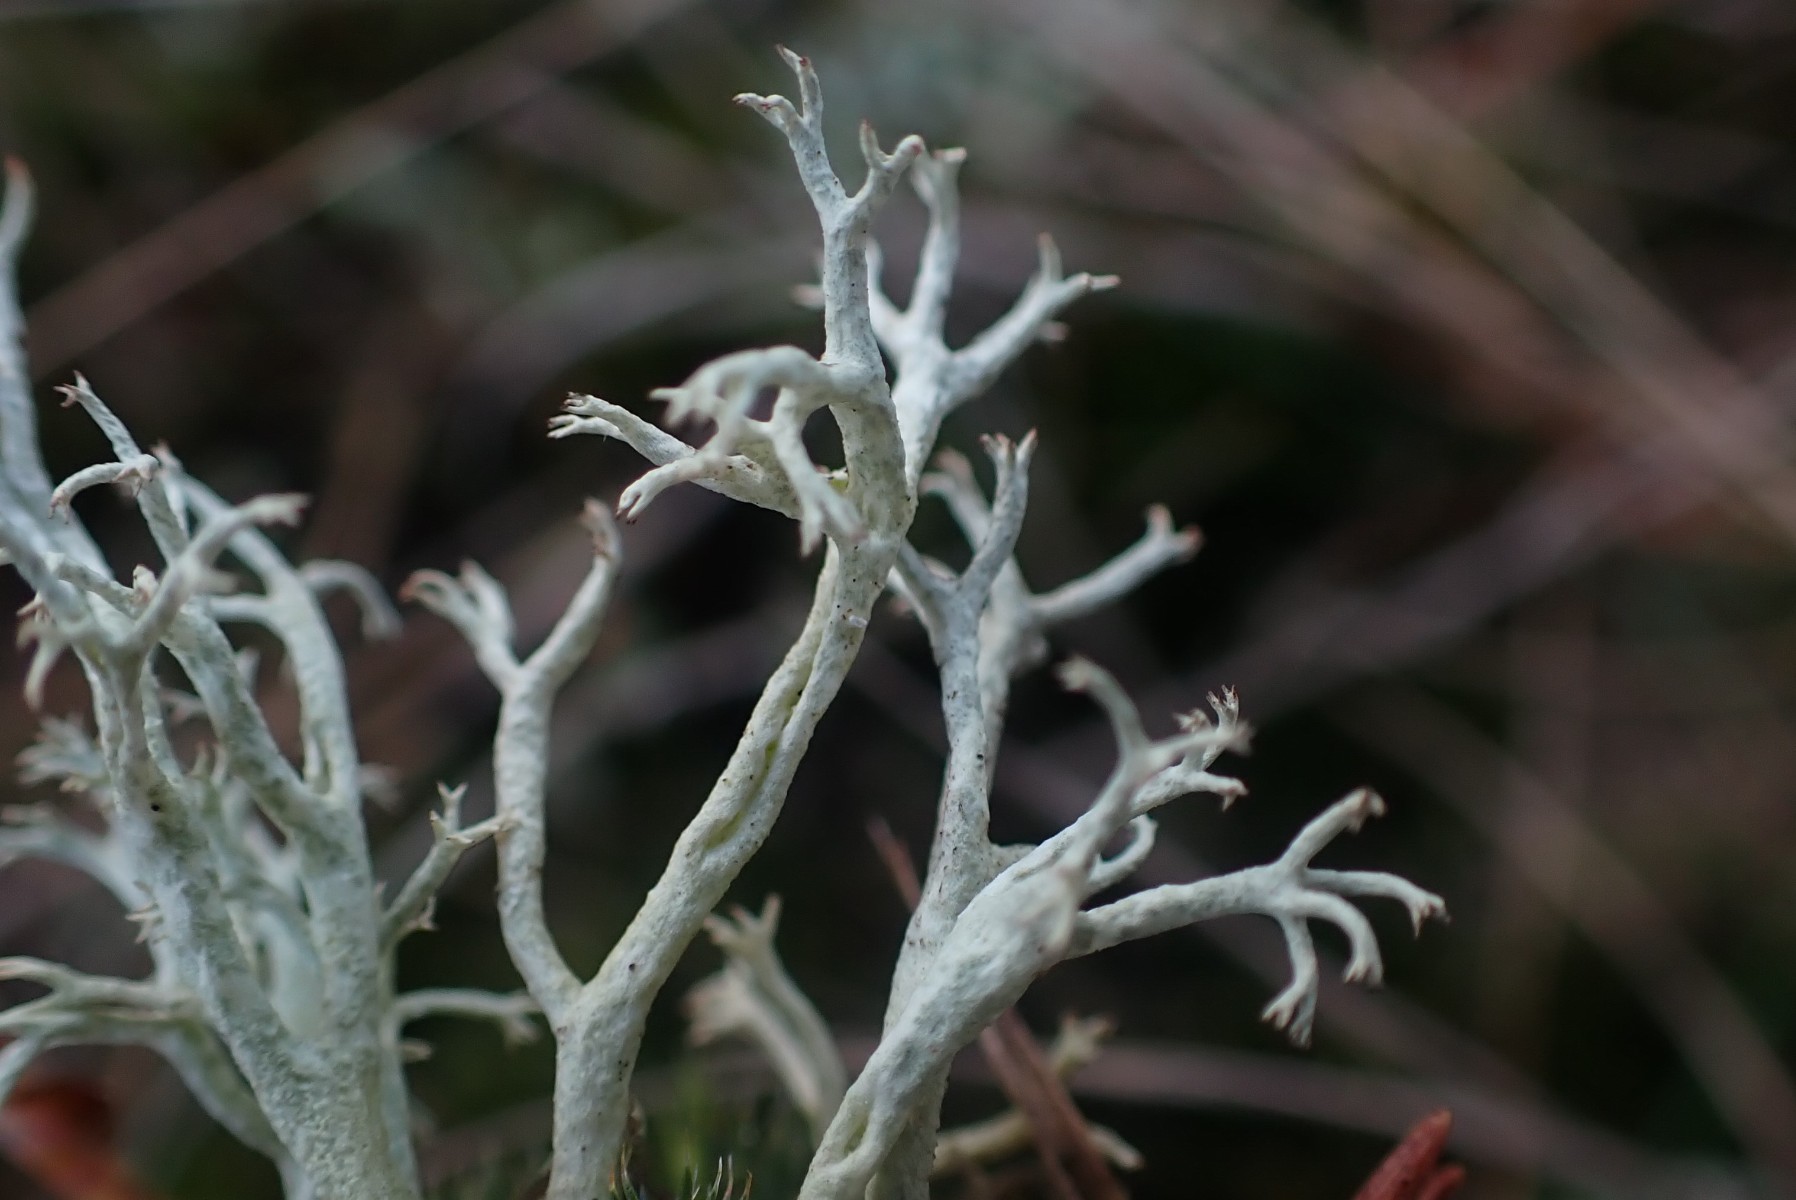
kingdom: Fungi
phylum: Ascomycota
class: Lecanoromycetes
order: Lecanorales
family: Cladoniaceae
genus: Cladonia
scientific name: Cladonia rangiferina
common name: askegrå rensdyrlav
